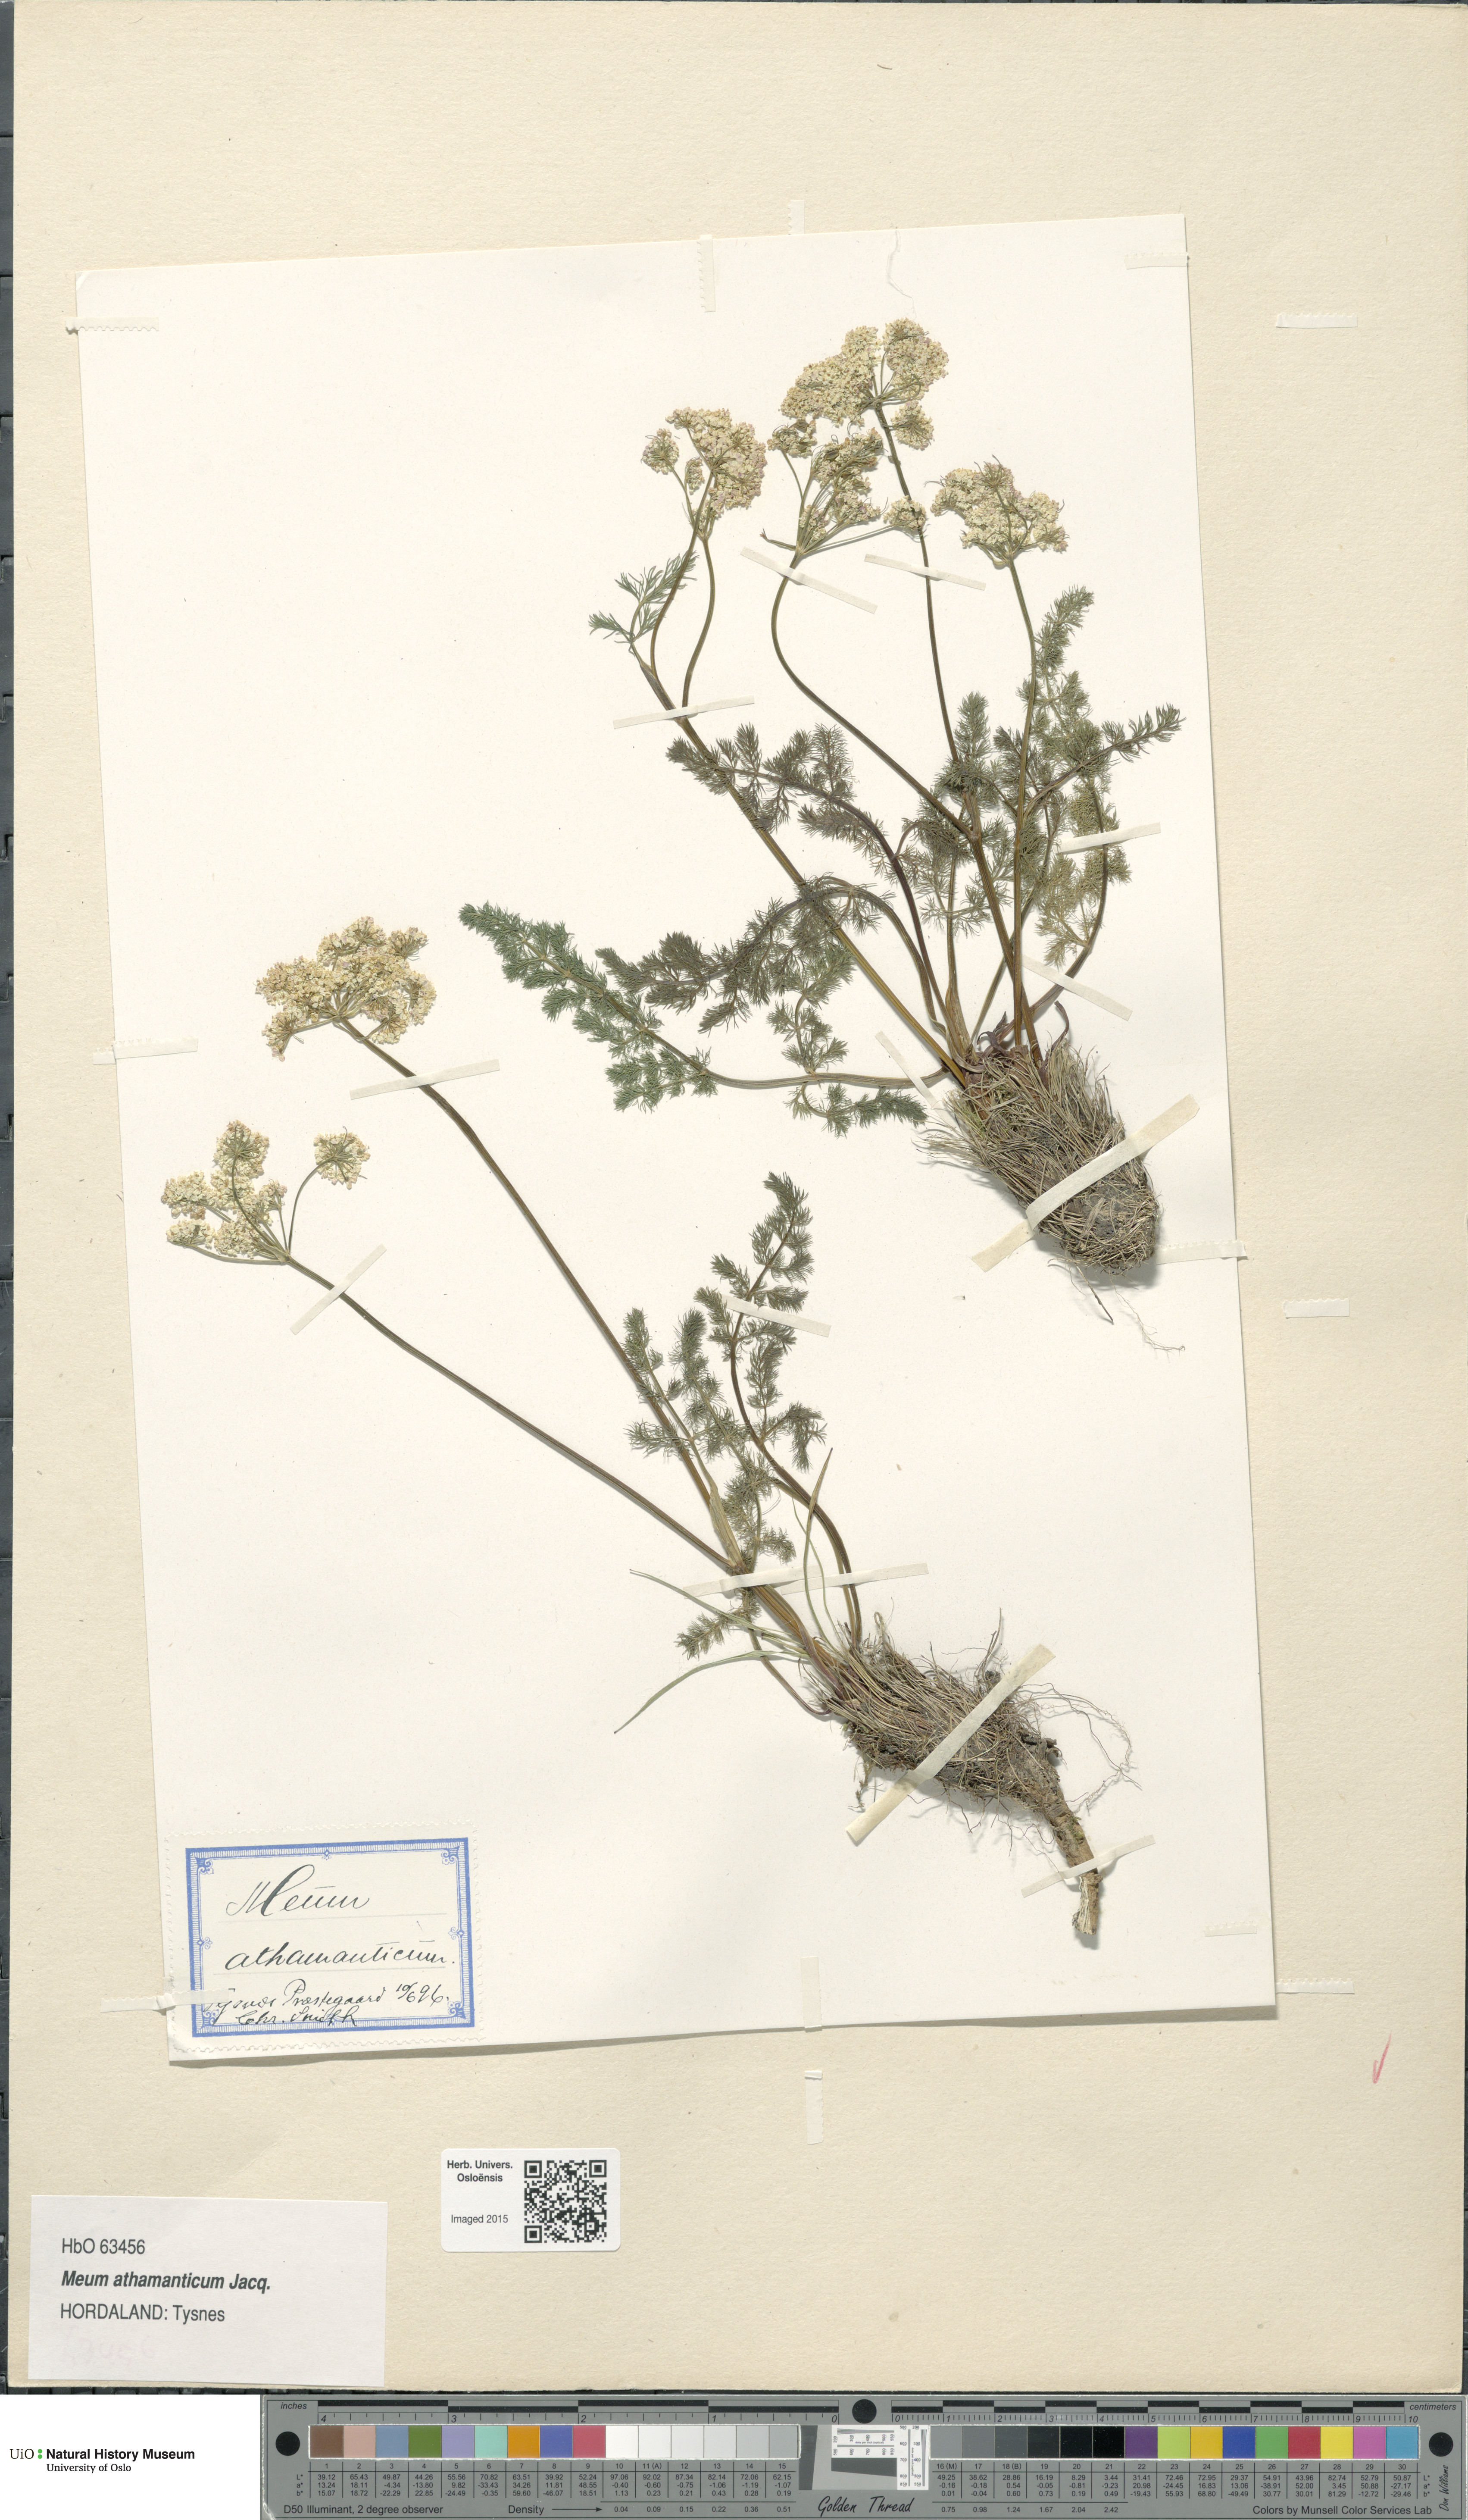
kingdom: Plantae
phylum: Tracheophyta
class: Magnoliopsida
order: Apiales
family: Apiaceae
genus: Meum
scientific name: Meum athamanticum
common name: Spignel
